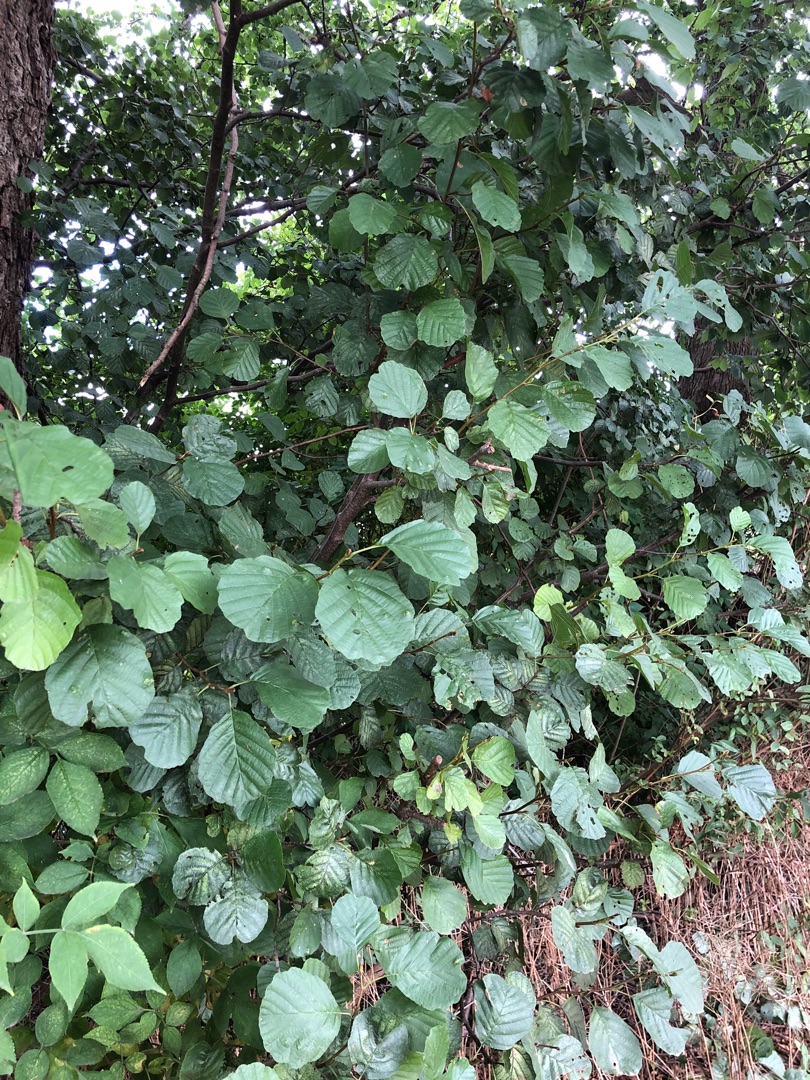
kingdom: Plantae
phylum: Tracheophyta
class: Magnoliopsida
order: Fagales
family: Betulaceae
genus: Alnus
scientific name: Alnus glutinosa
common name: Rød-el
